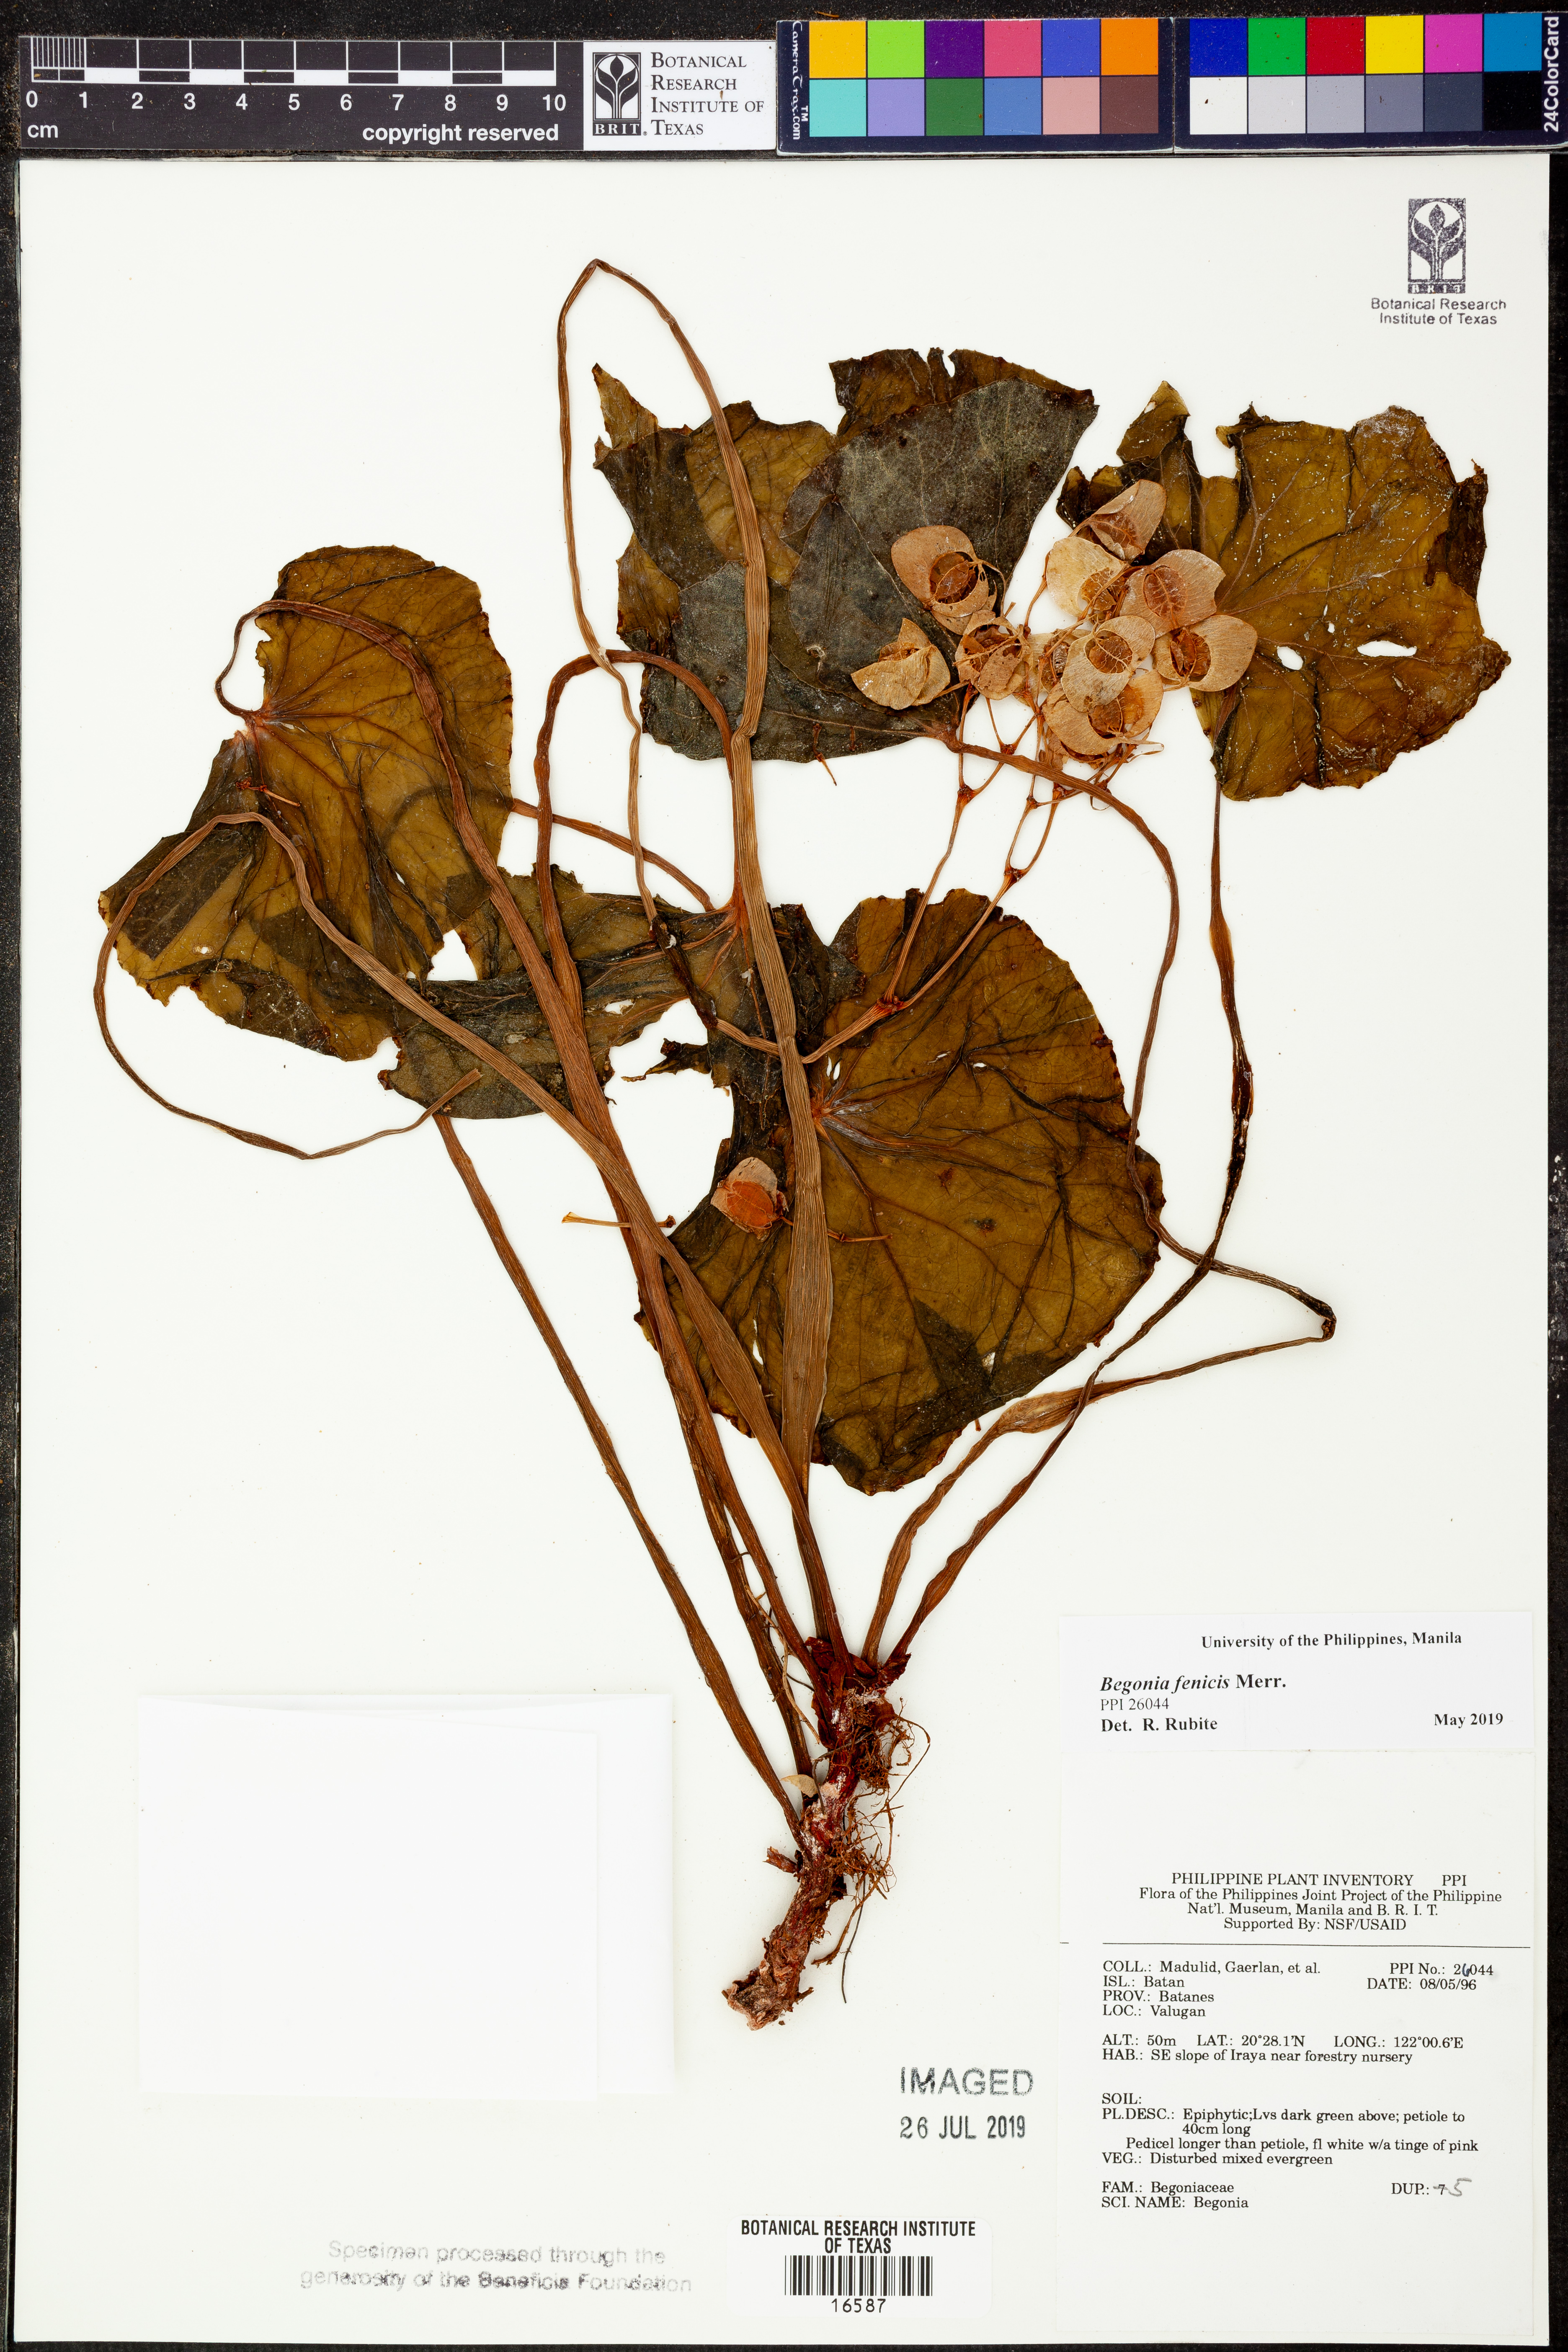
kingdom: Plantae
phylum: Tracheophyta
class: Magnoliopsida
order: Cucurbitales
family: Begoniaceae
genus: Begonia
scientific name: Begonia fenicis
